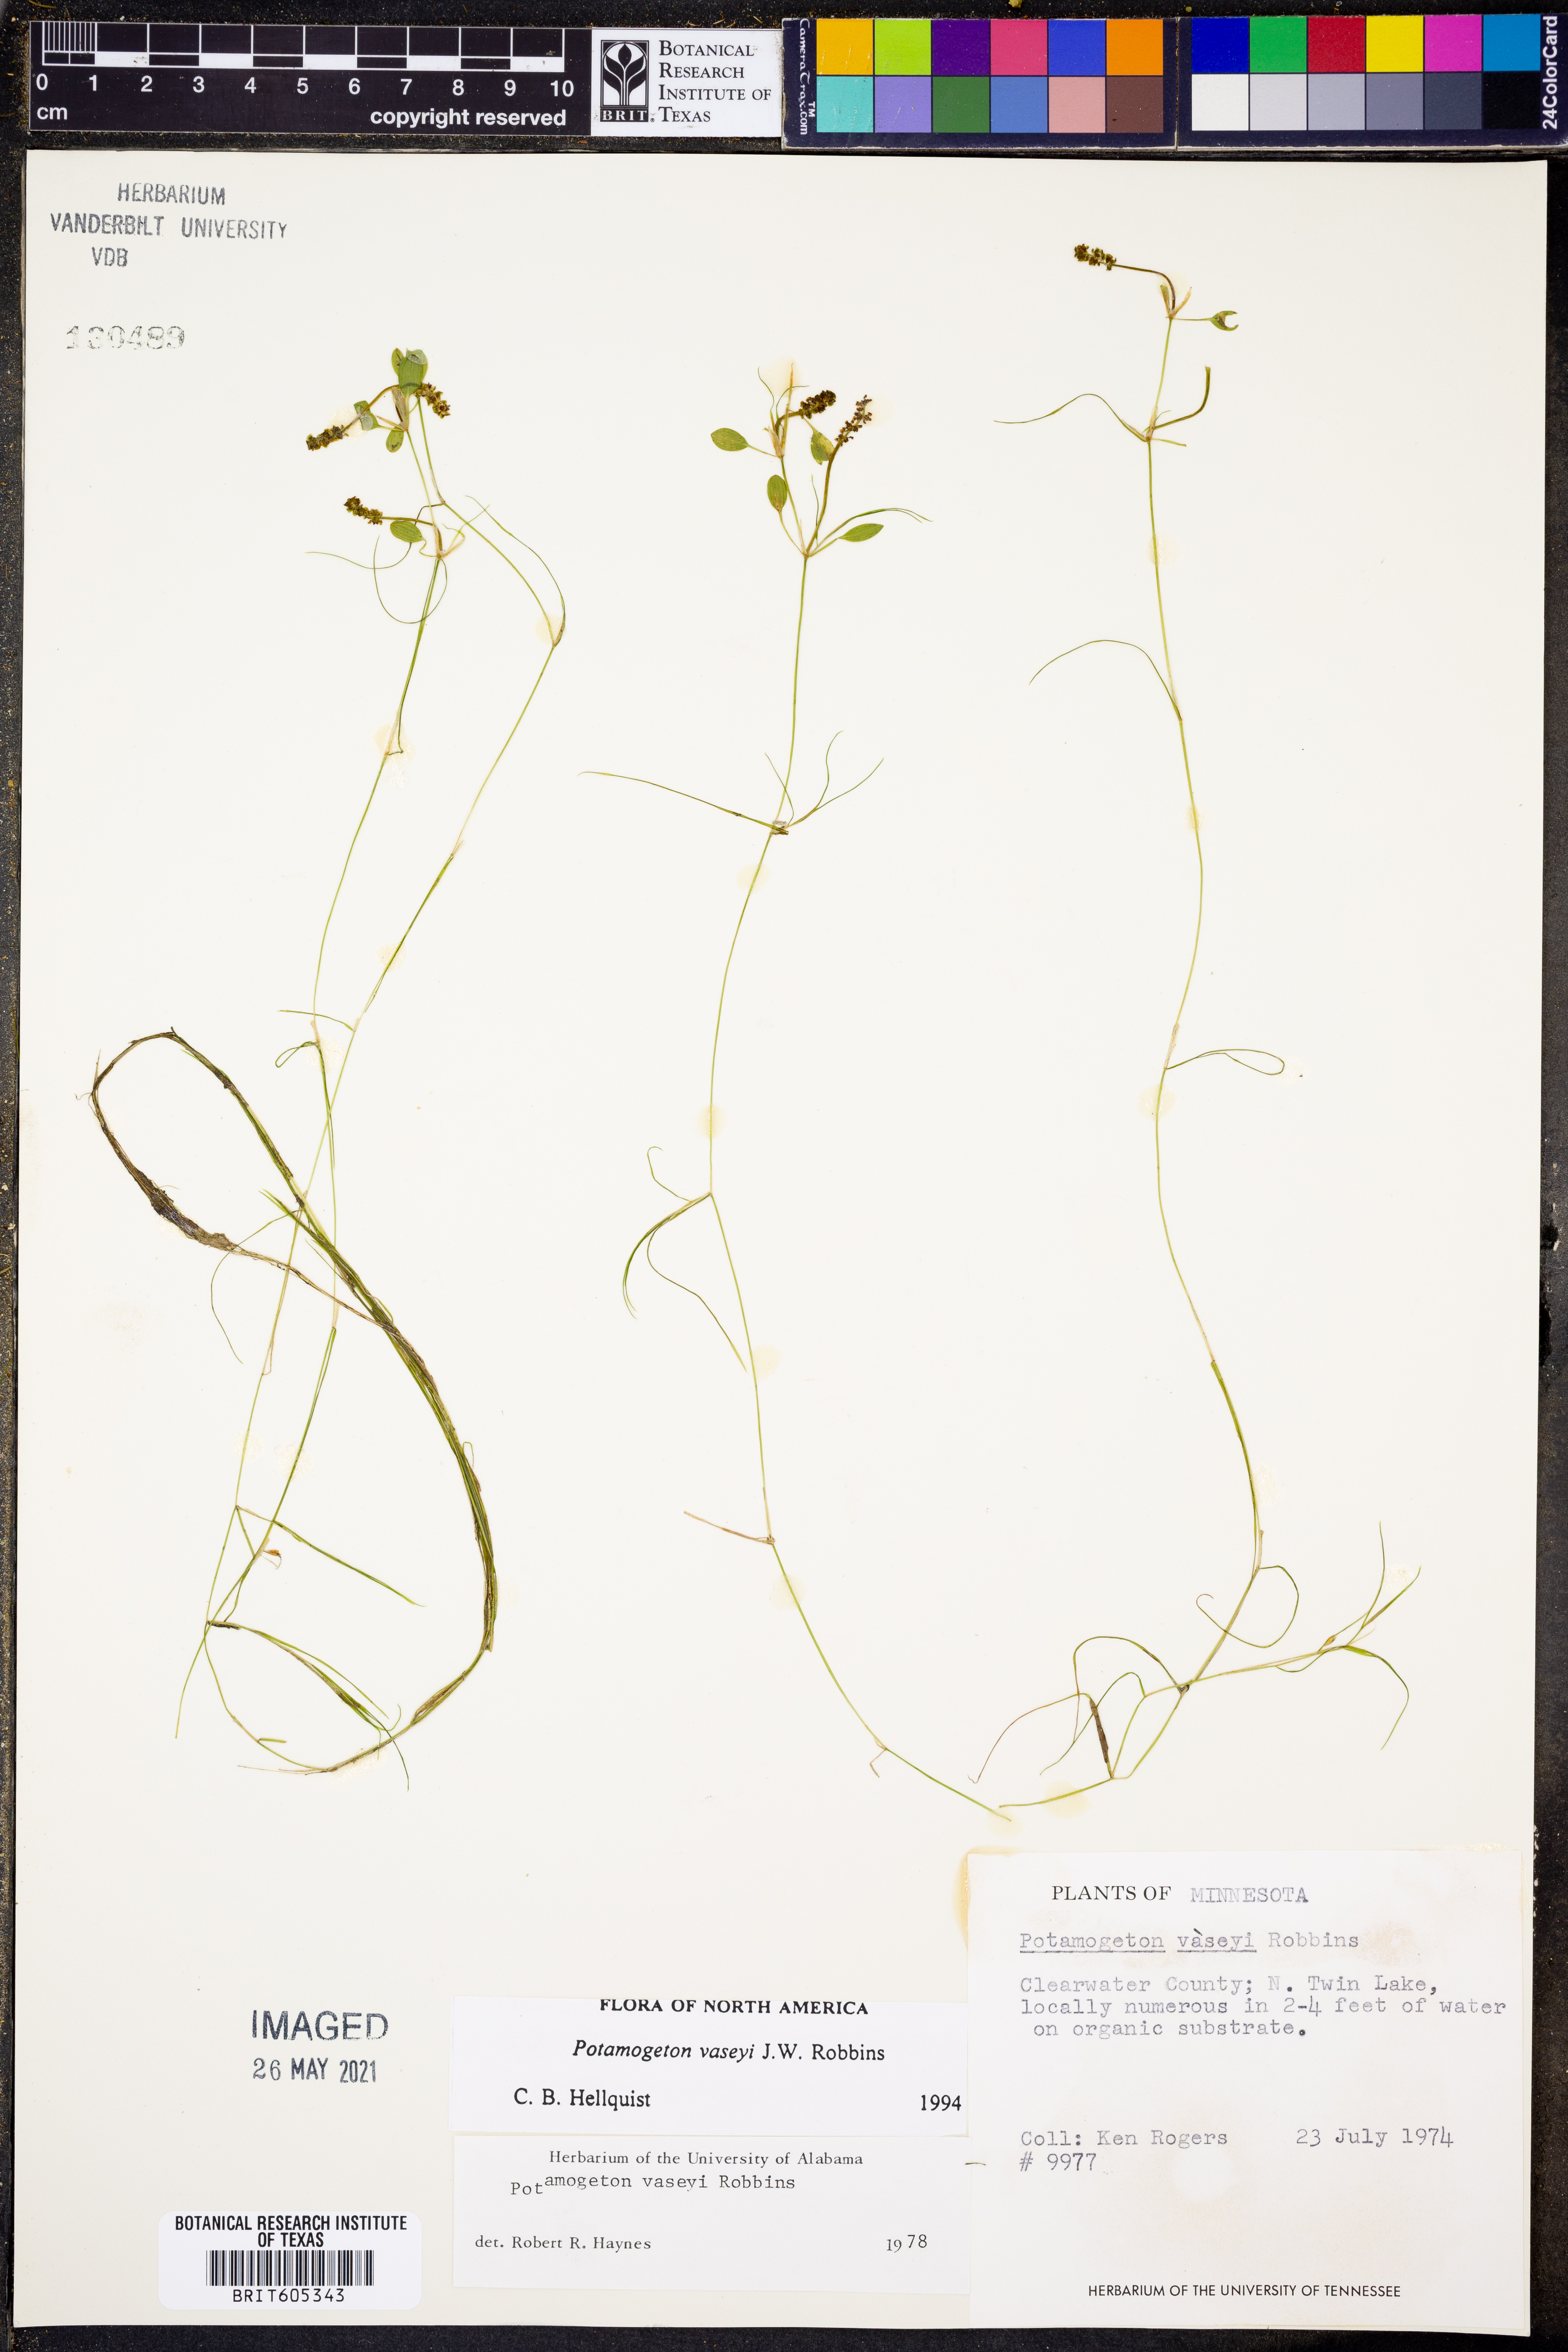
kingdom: Plantae
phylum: Tracheophyta
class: Liliopsida
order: Alismatales
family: Potamogetonaceae
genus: Potamogeton
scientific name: Potamogeton vaseyi
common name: Vasey's pondweed
